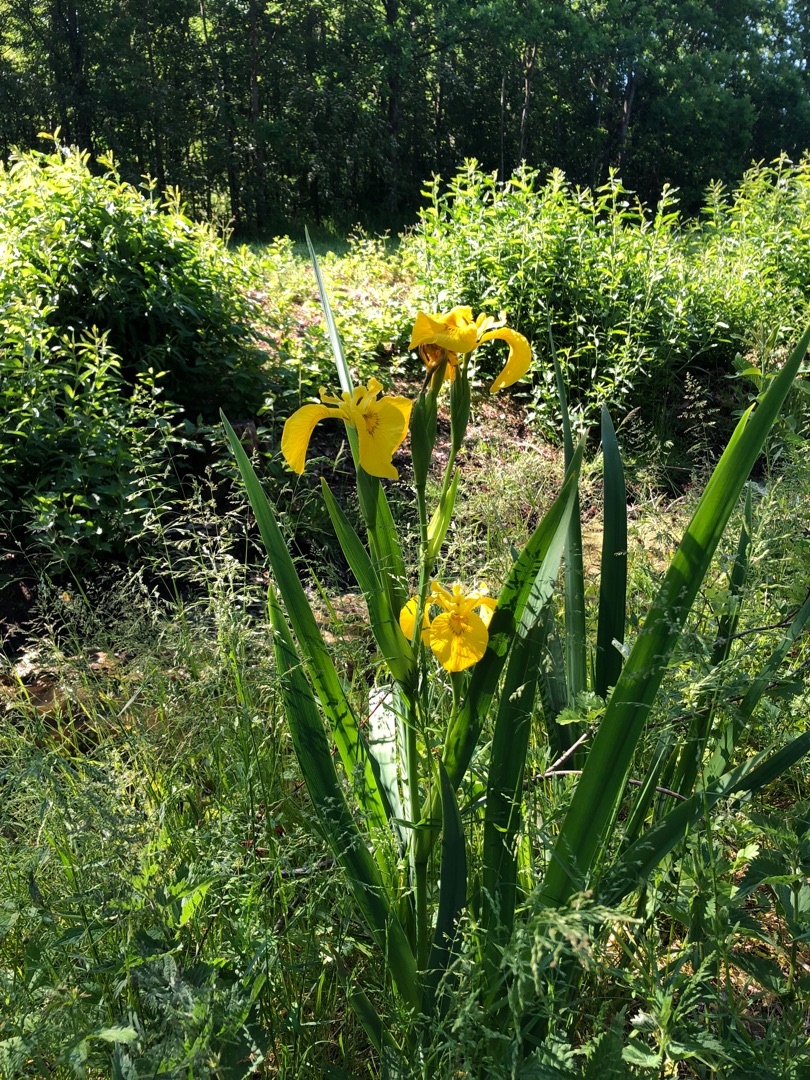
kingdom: Plantae
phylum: Tracheophyta
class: Liliopsida
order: Asparagales
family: Iridaceae
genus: Iris
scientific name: Iris pseudacorus
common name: Gul iris
